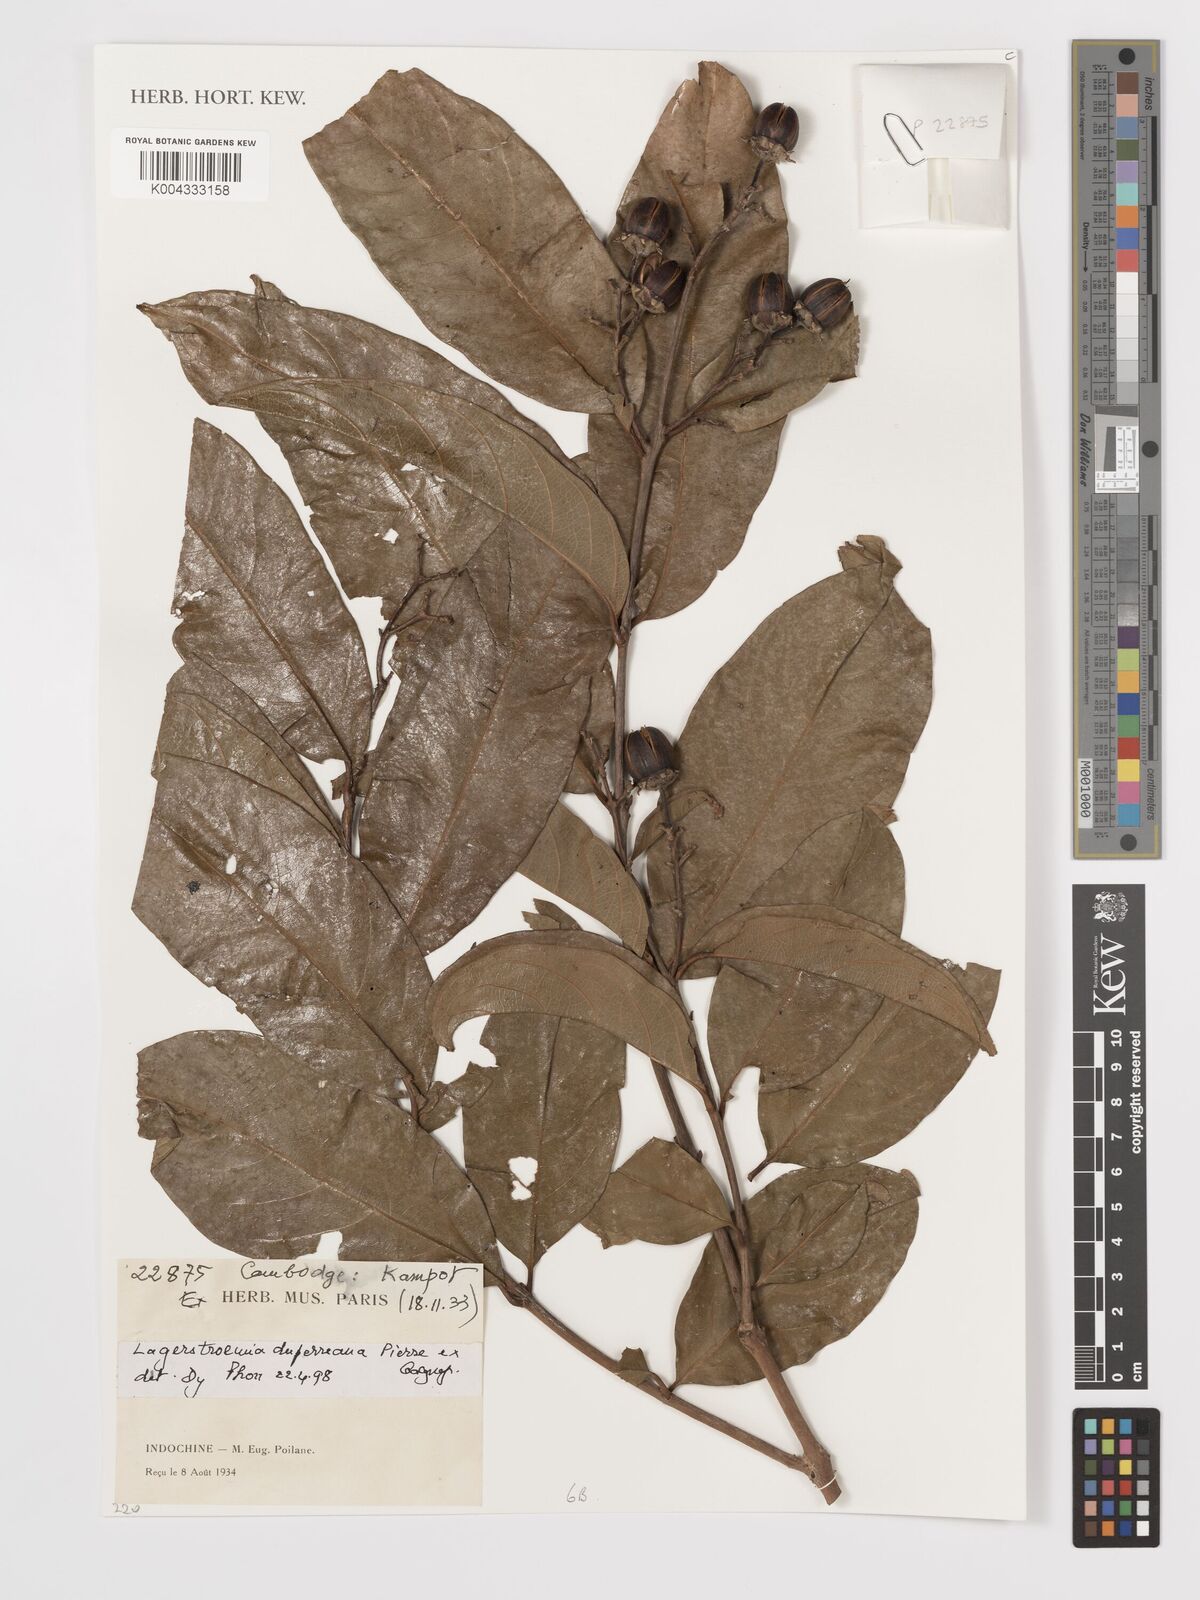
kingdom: Plantae
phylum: Tracheophyta
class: Magnoliopsida
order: Myrtales
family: Lythraceae
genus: Lagerstroemia
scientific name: Lagerstroemia duperreana
